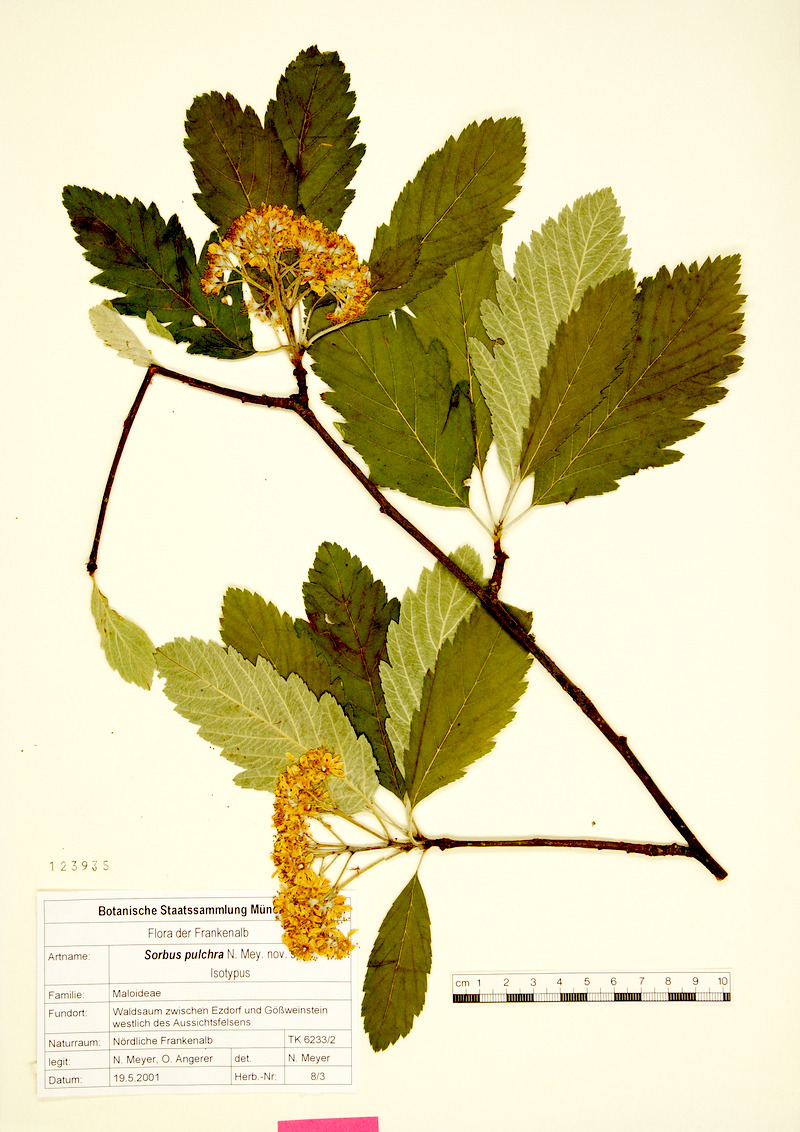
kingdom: Plantae
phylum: Tracheophyta
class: Magnoliopsida
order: Rosales
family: Rosaceae
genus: Hedlundia
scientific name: Hedlundia pulchra
